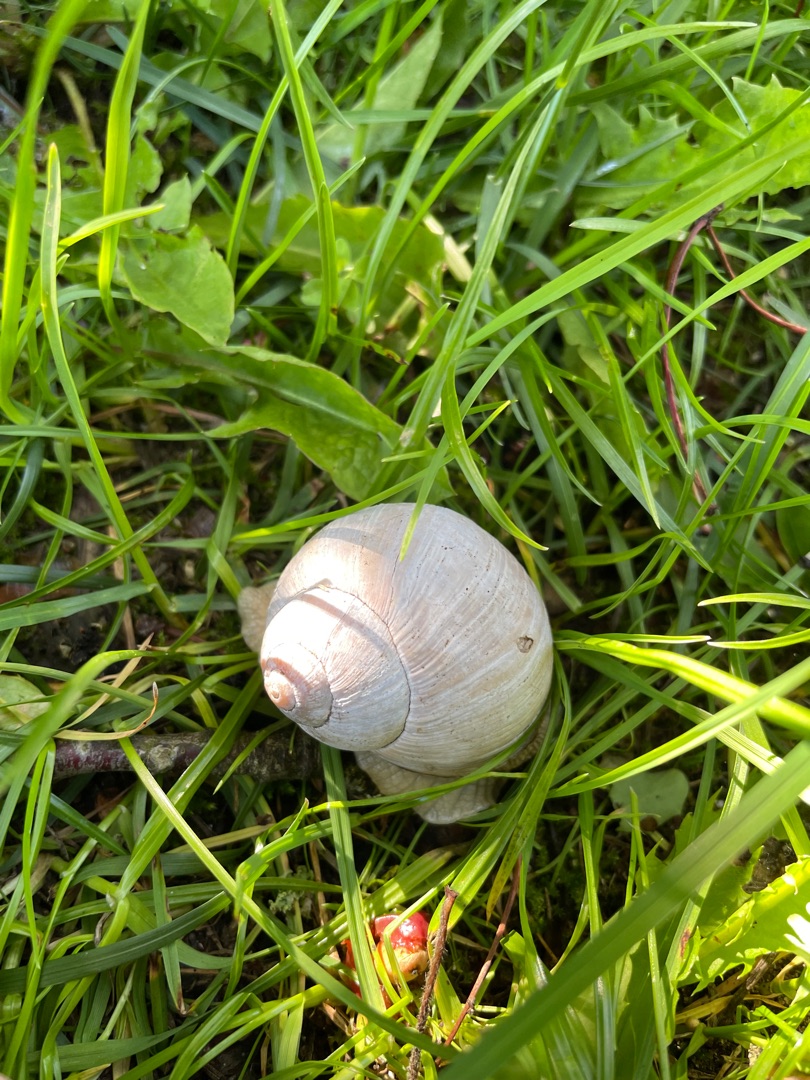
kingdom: Animalia
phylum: Mollusca
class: Gastropoda
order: Stylommatophora
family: Helicidae
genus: Helix
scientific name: Helix pomatia
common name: Vinbjergsnegl
